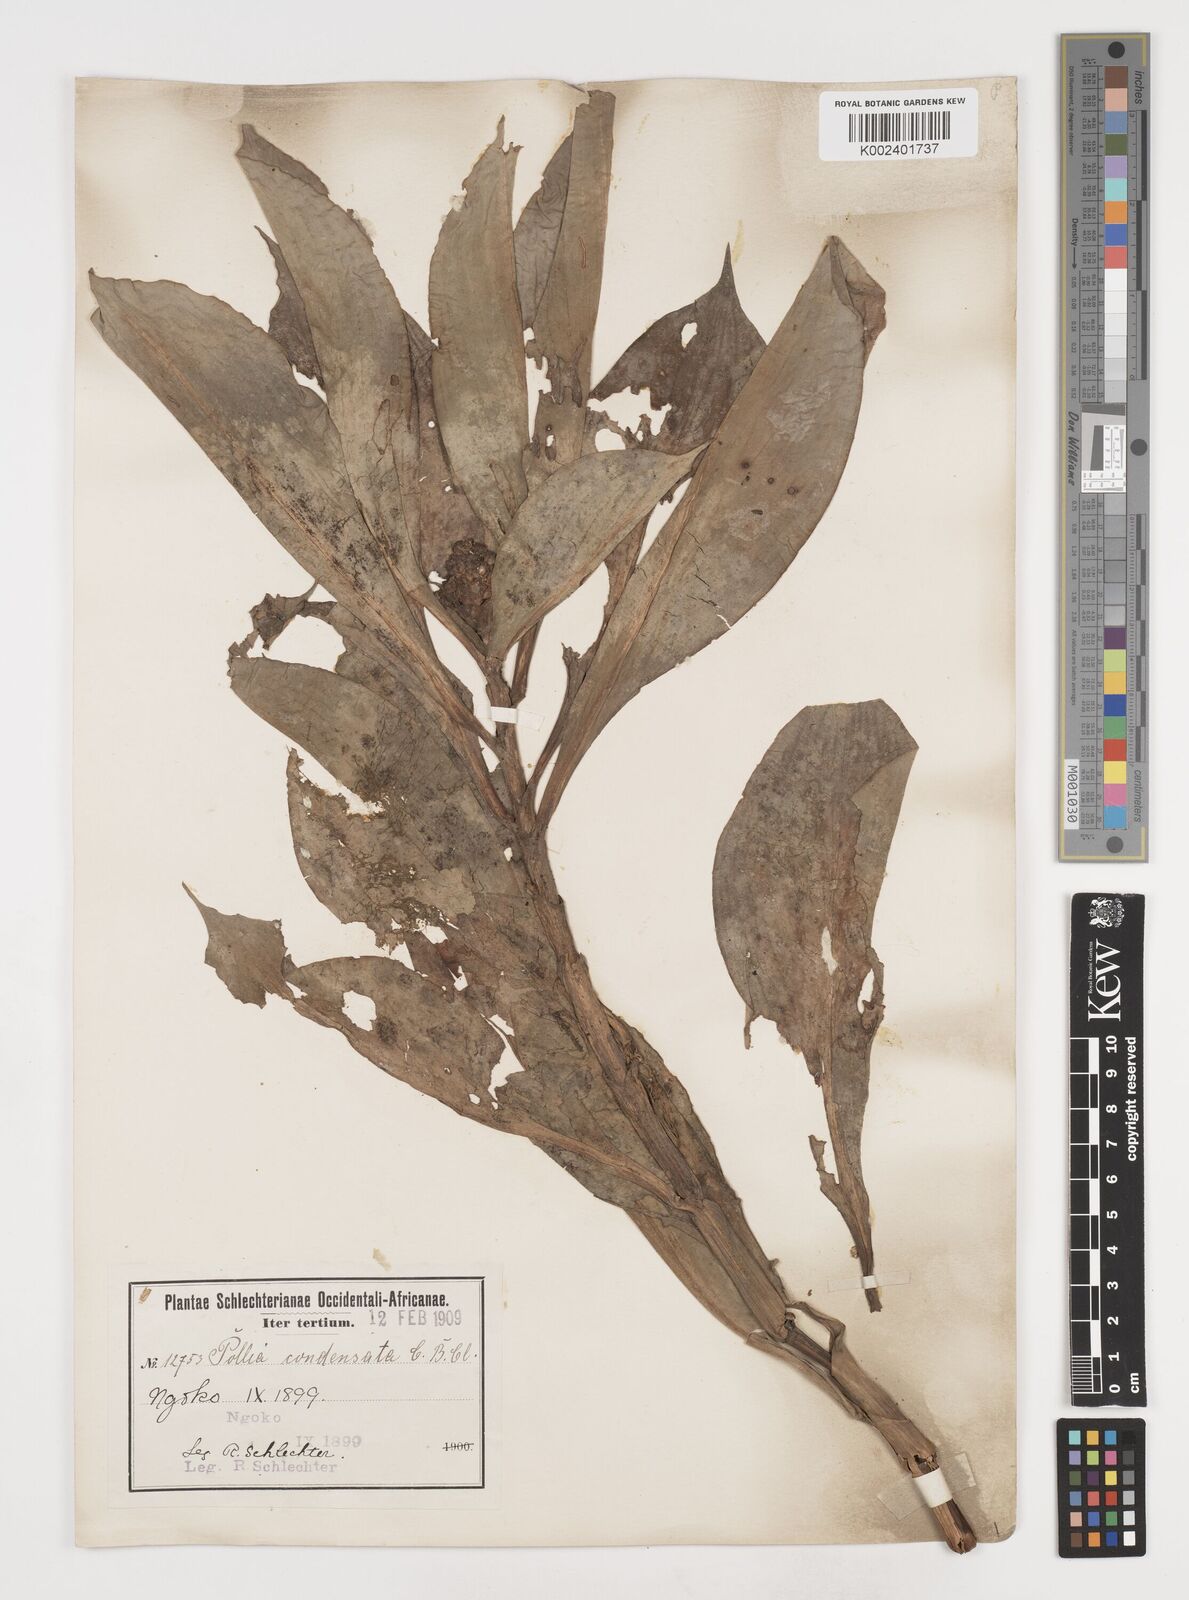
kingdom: Plantae
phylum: Tracheophyta
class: Liliopsida
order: Commelinales
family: Commelinaceae
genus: Pollia
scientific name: Pollia condensata
